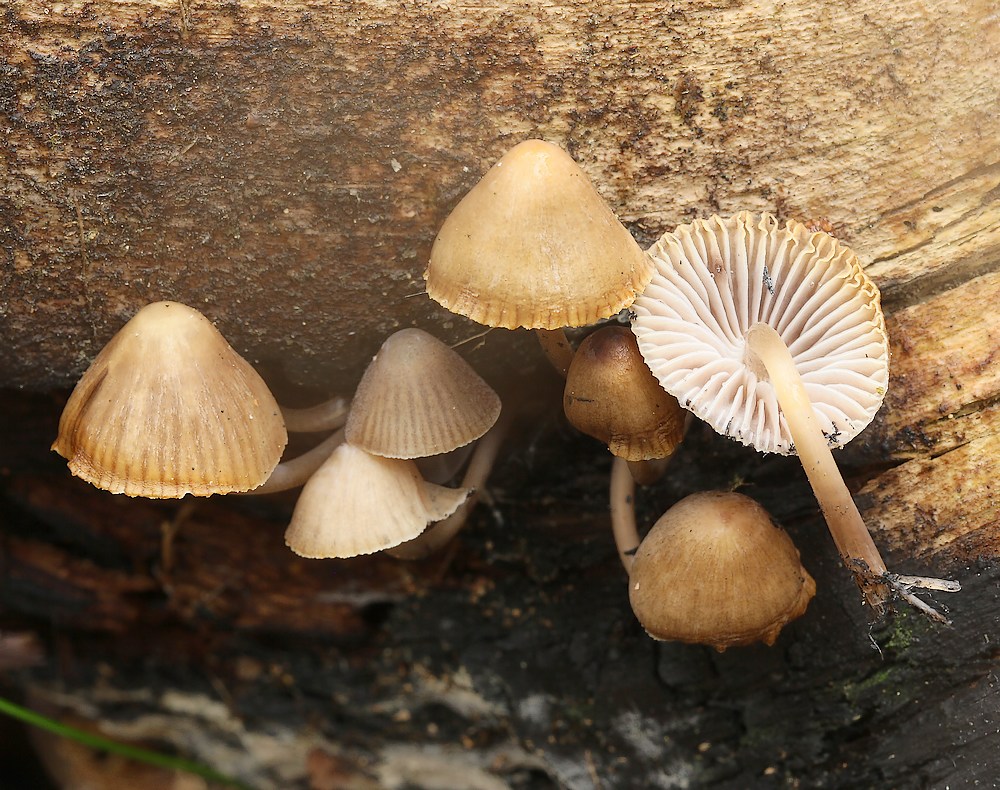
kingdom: Fungi
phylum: Basidiomycota
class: Agaricomycetes
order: Agaricales
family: Mycenaceae
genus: Mycena
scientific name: Mycena stipata
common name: stinkende huesvamp
